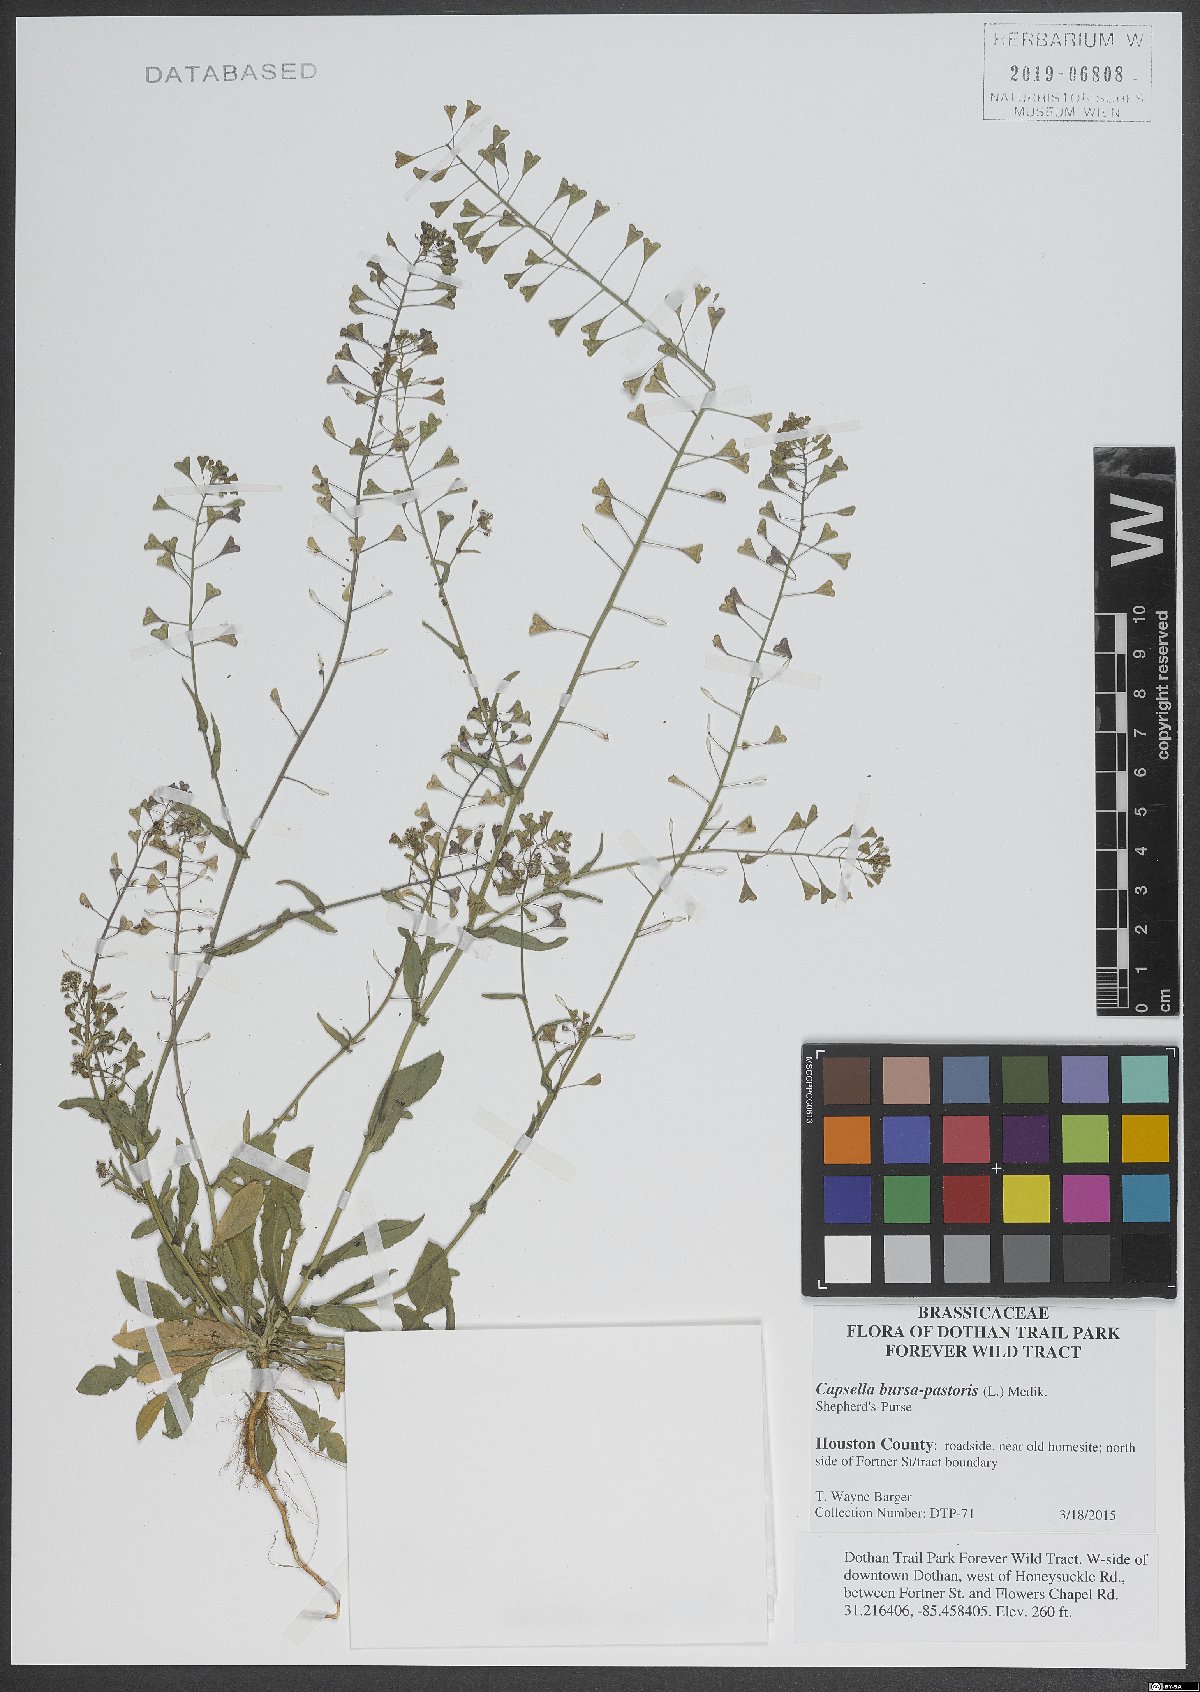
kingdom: Plantae
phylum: Tracheophyta
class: Magnoliopsida
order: Brassicales
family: Brassicaceae
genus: Capsella
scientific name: Capsella bursa-pastoris
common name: Shepherd's purse
